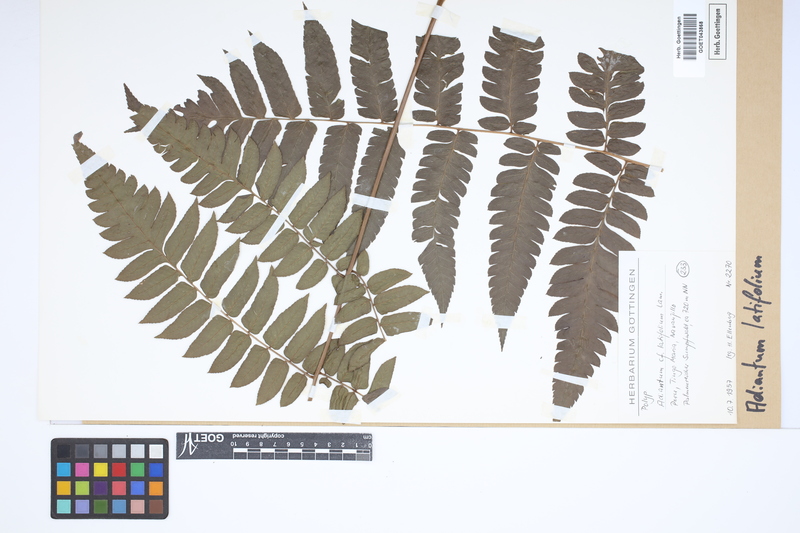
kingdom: Plantae
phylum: Tracheophyta
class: Polypodiopsida
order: Polypodiales
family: Pteridaceae
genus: Adiantum
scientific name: Adiantum latifolium
